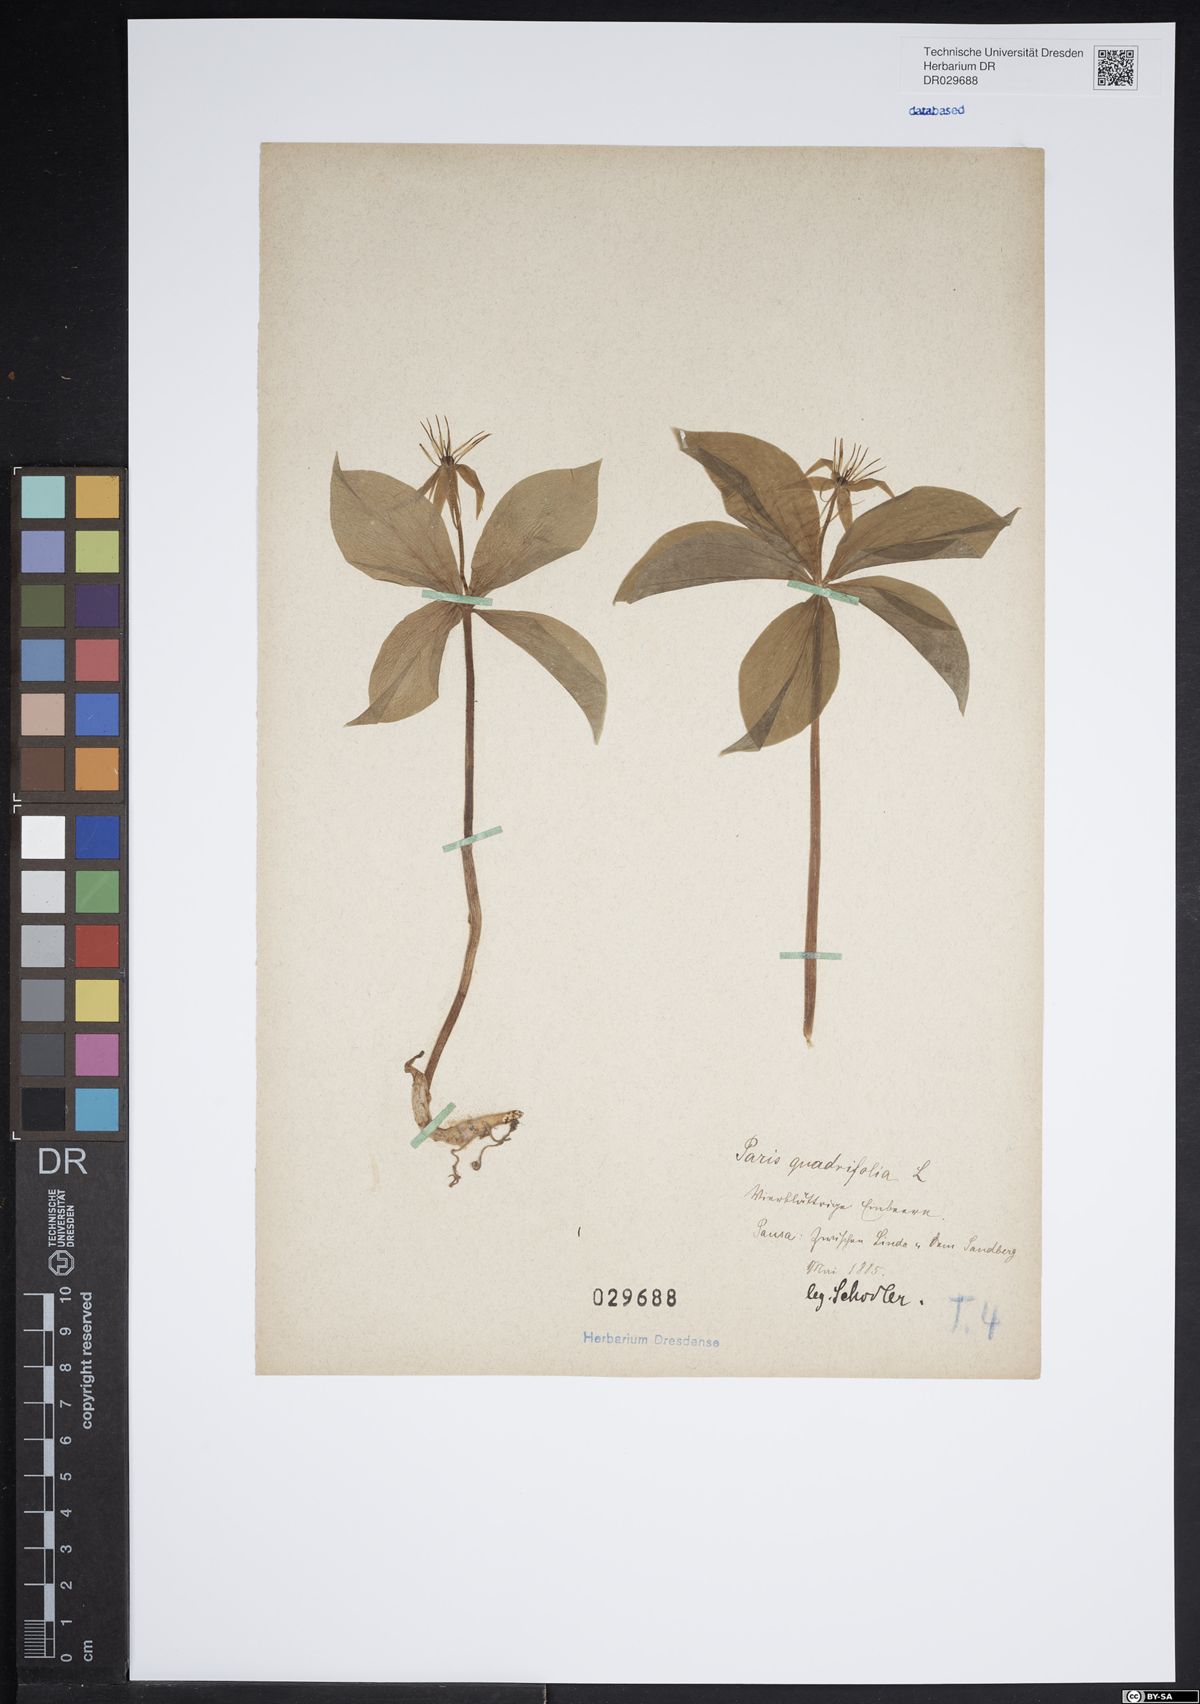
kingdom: Plantae
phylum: Tracheophyta
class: Liliopsida
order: Liliales
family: Melanthiaceae
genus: Paris
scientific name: Paris quadrifolia
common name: Herb-paris
